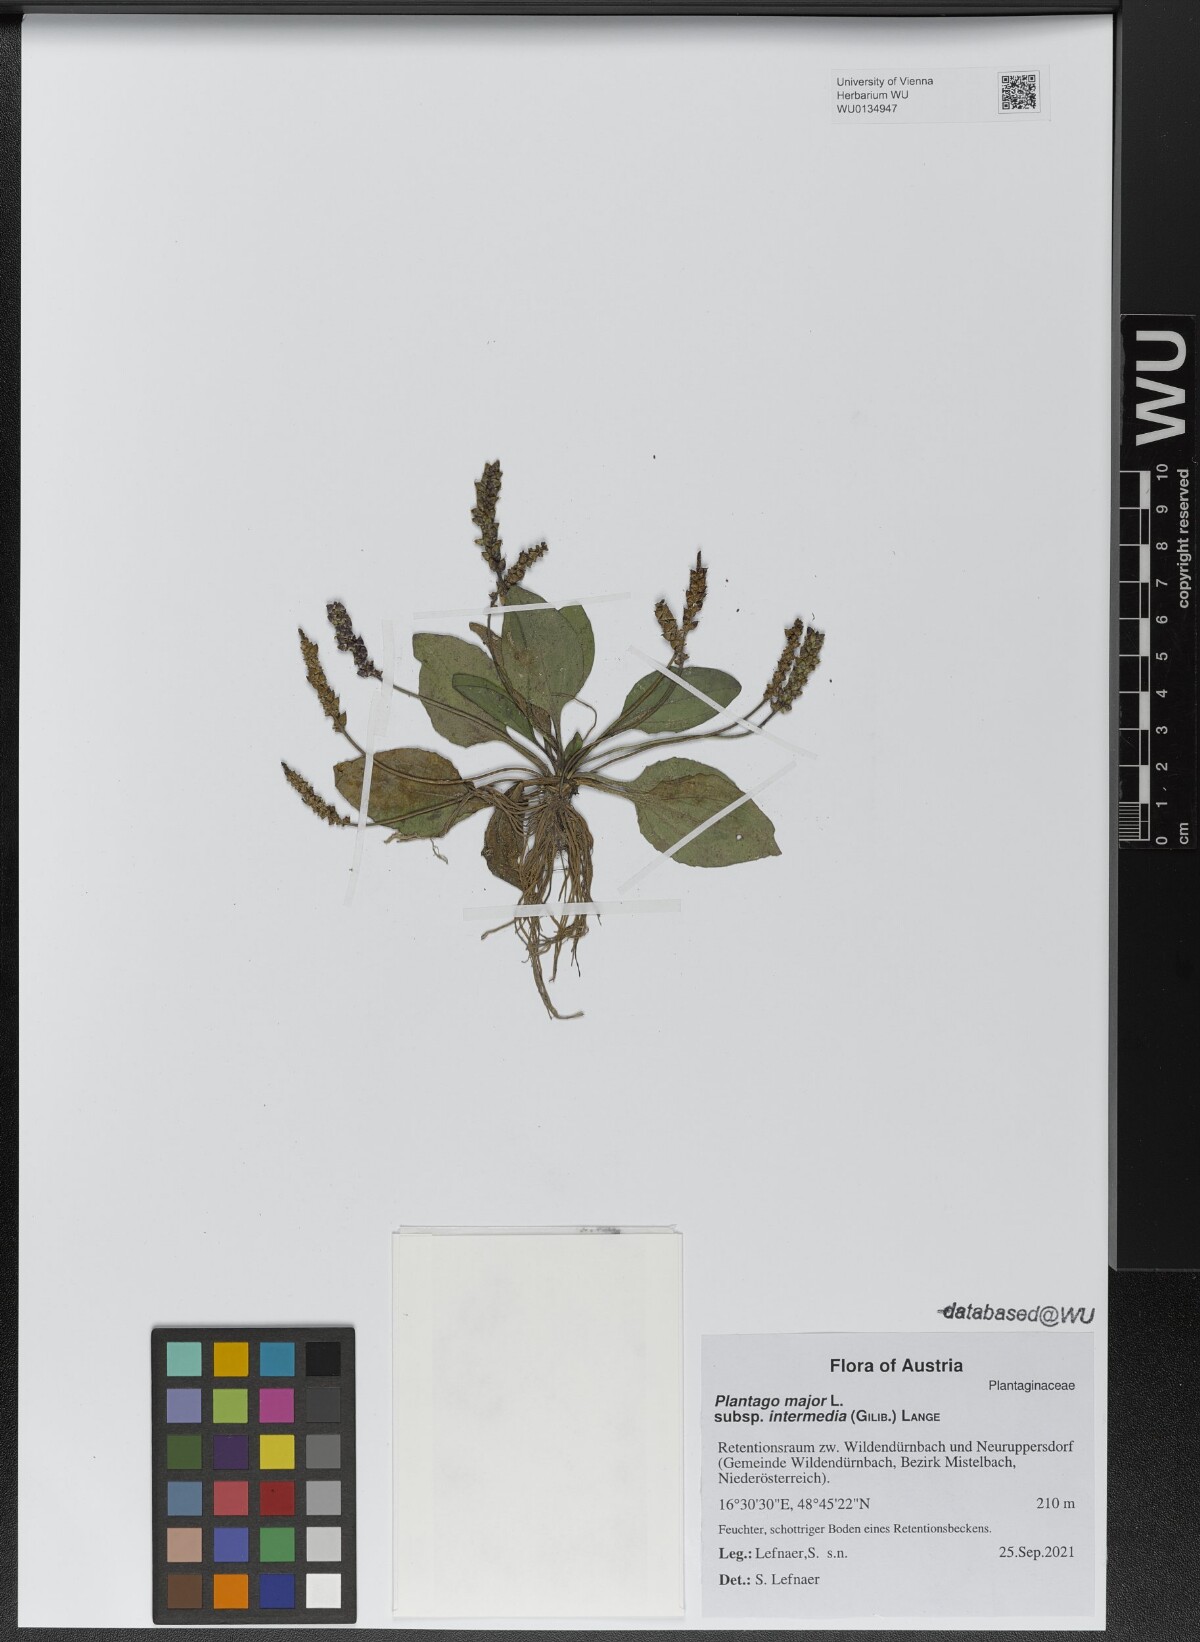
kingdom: Plantae
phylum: Tracheophyta
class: Magnoliopsida
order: Lamiales
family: Plantaginaceae
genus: Plantago
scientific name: Plantago uliginosa
